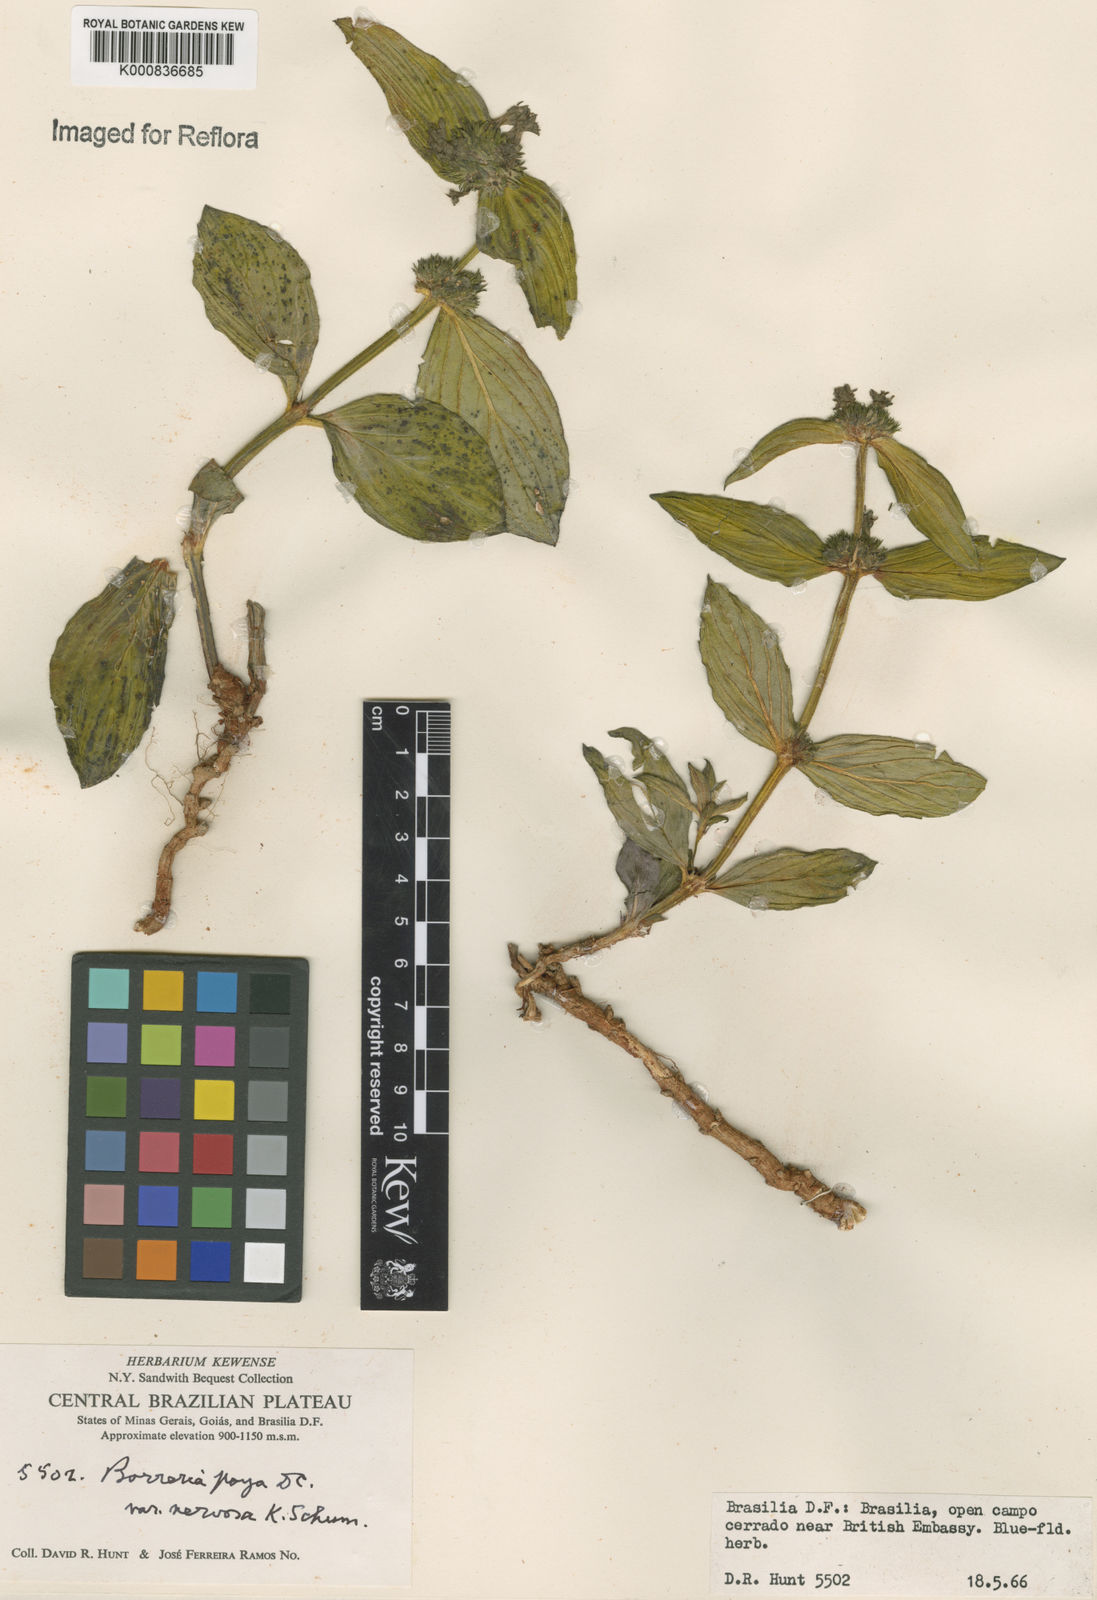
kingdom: Plantae
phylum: Tracheophyta
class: Magnoliopsida
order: Gentianales
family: Rubiaceae
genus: Spermacoce
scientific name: Spermacoce poaya
